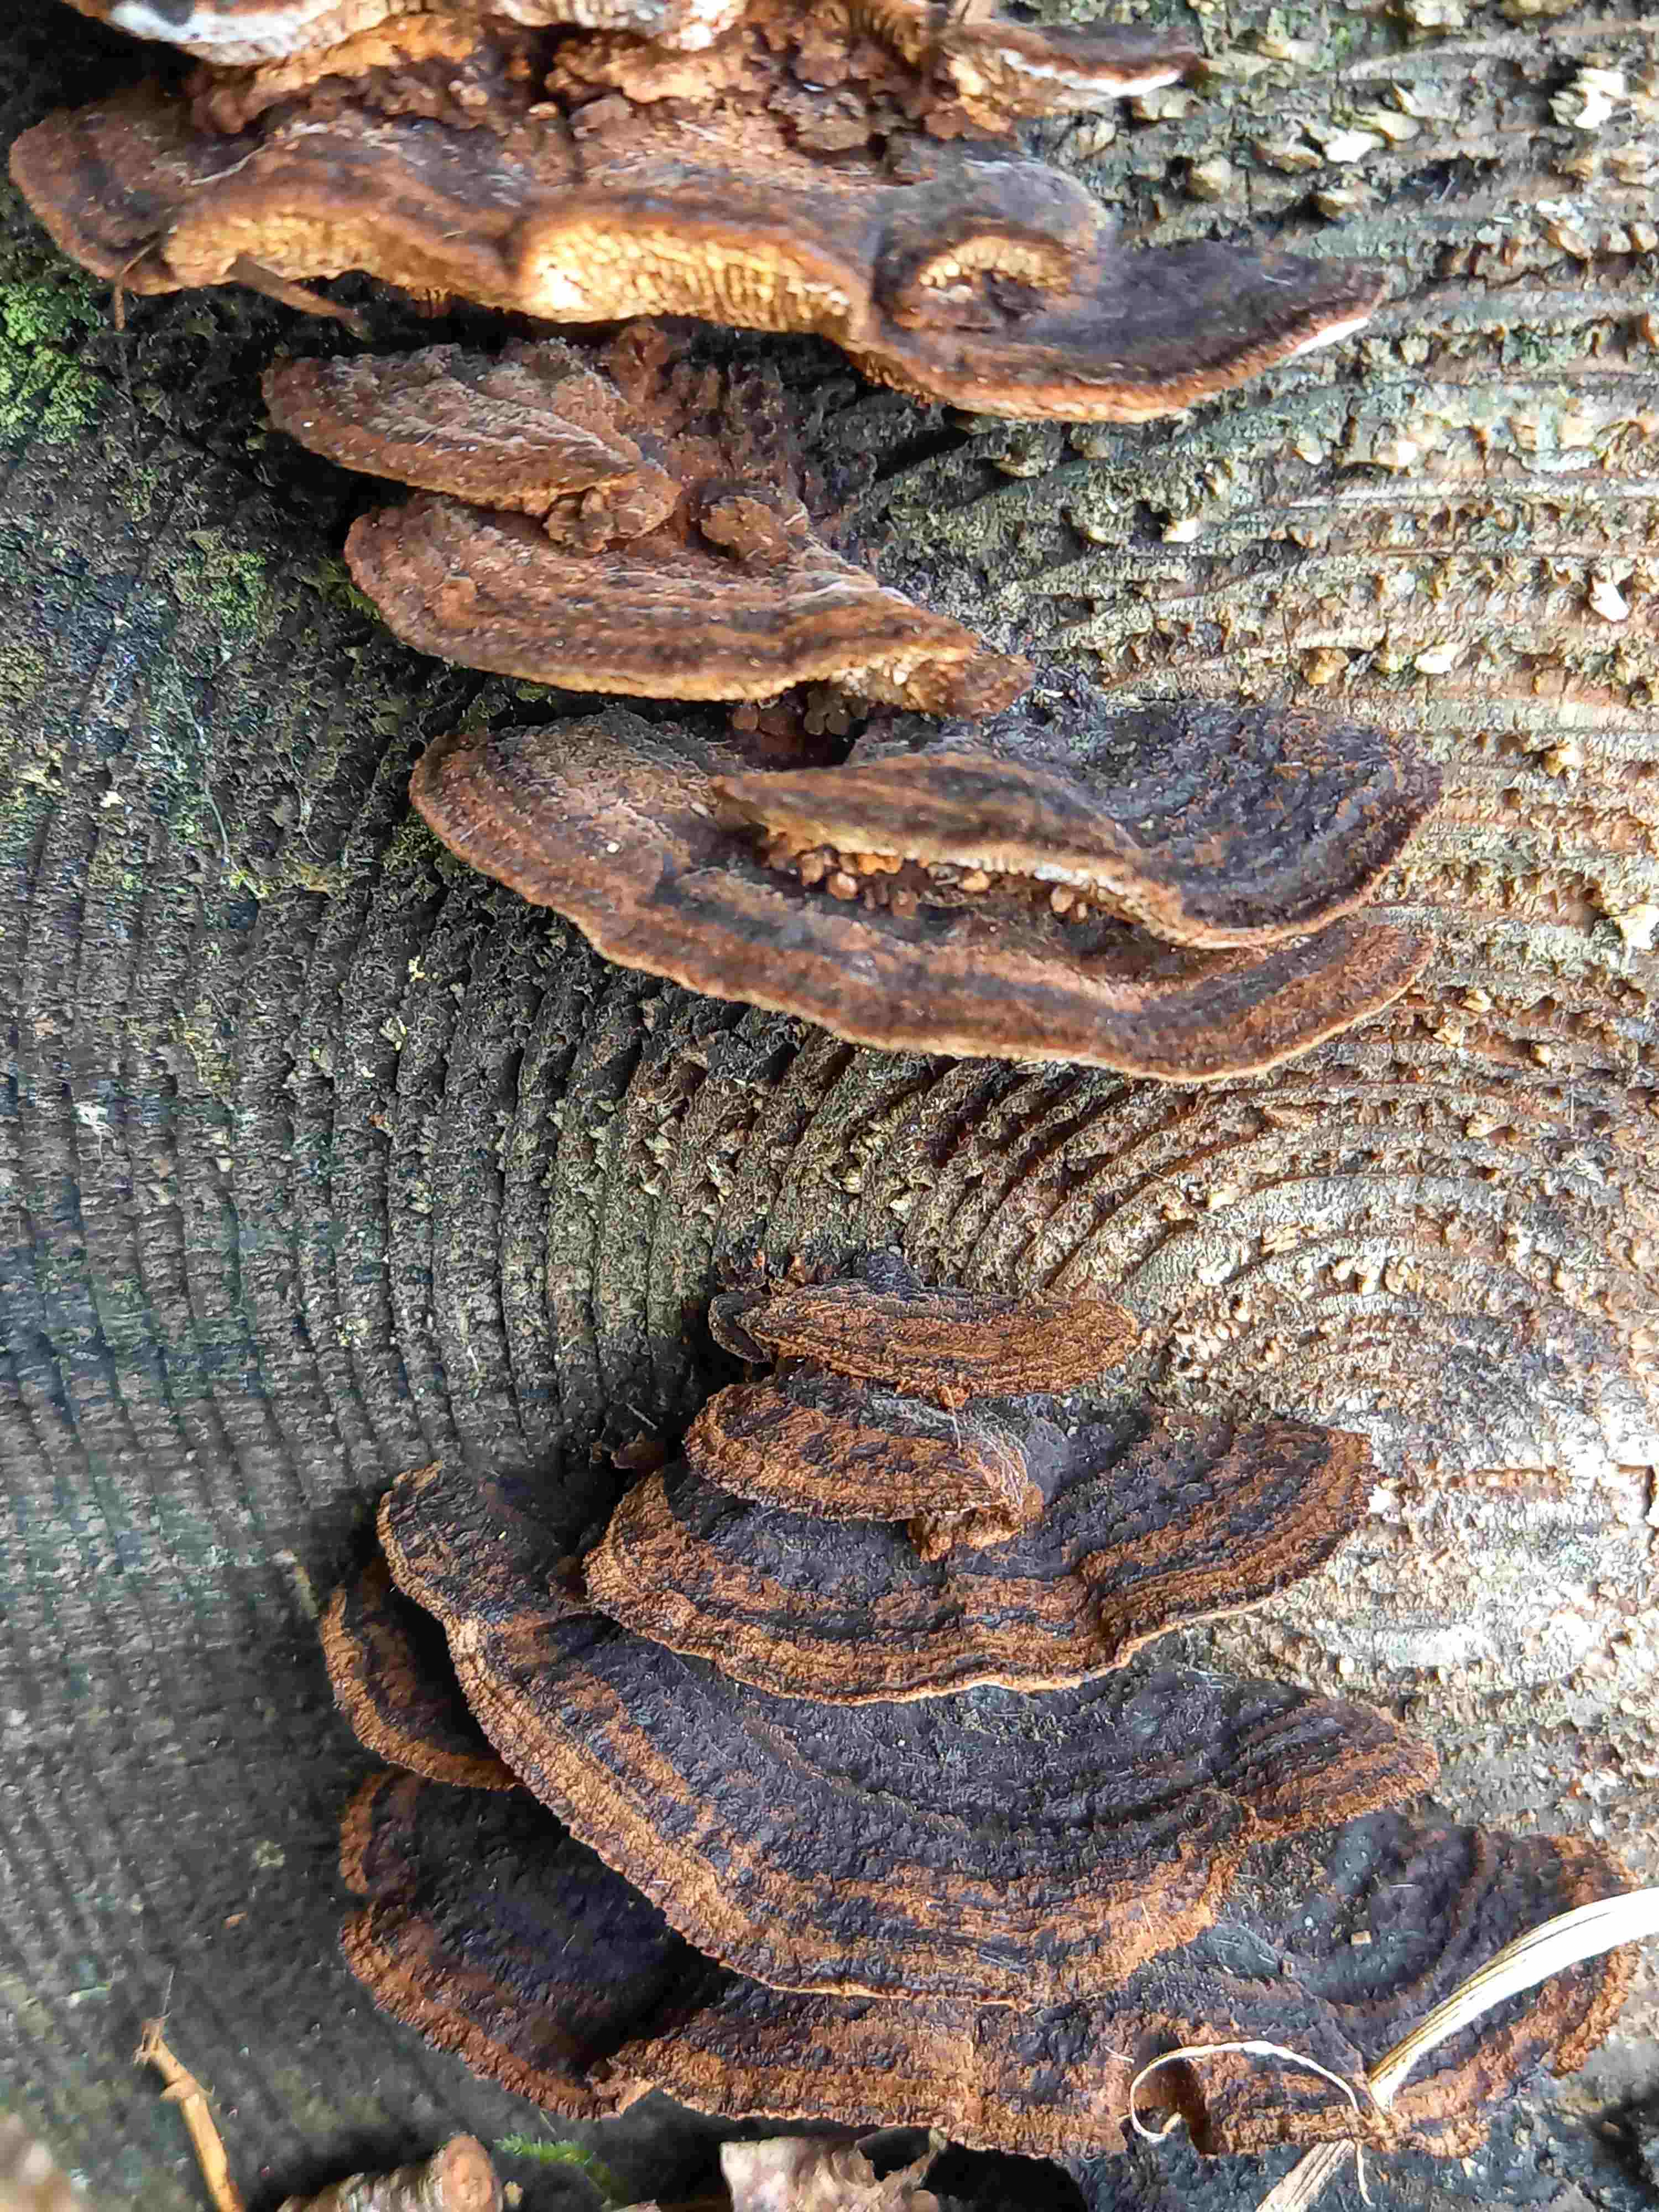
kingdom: Fungi
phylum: Basidiomycota
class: Agaricomycetes
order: Gloeophyllales
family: Gloeophyllaceae
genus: Gloeophyllum
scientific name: Gloeophyllum sepiarium
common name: fyrre-korkhat
